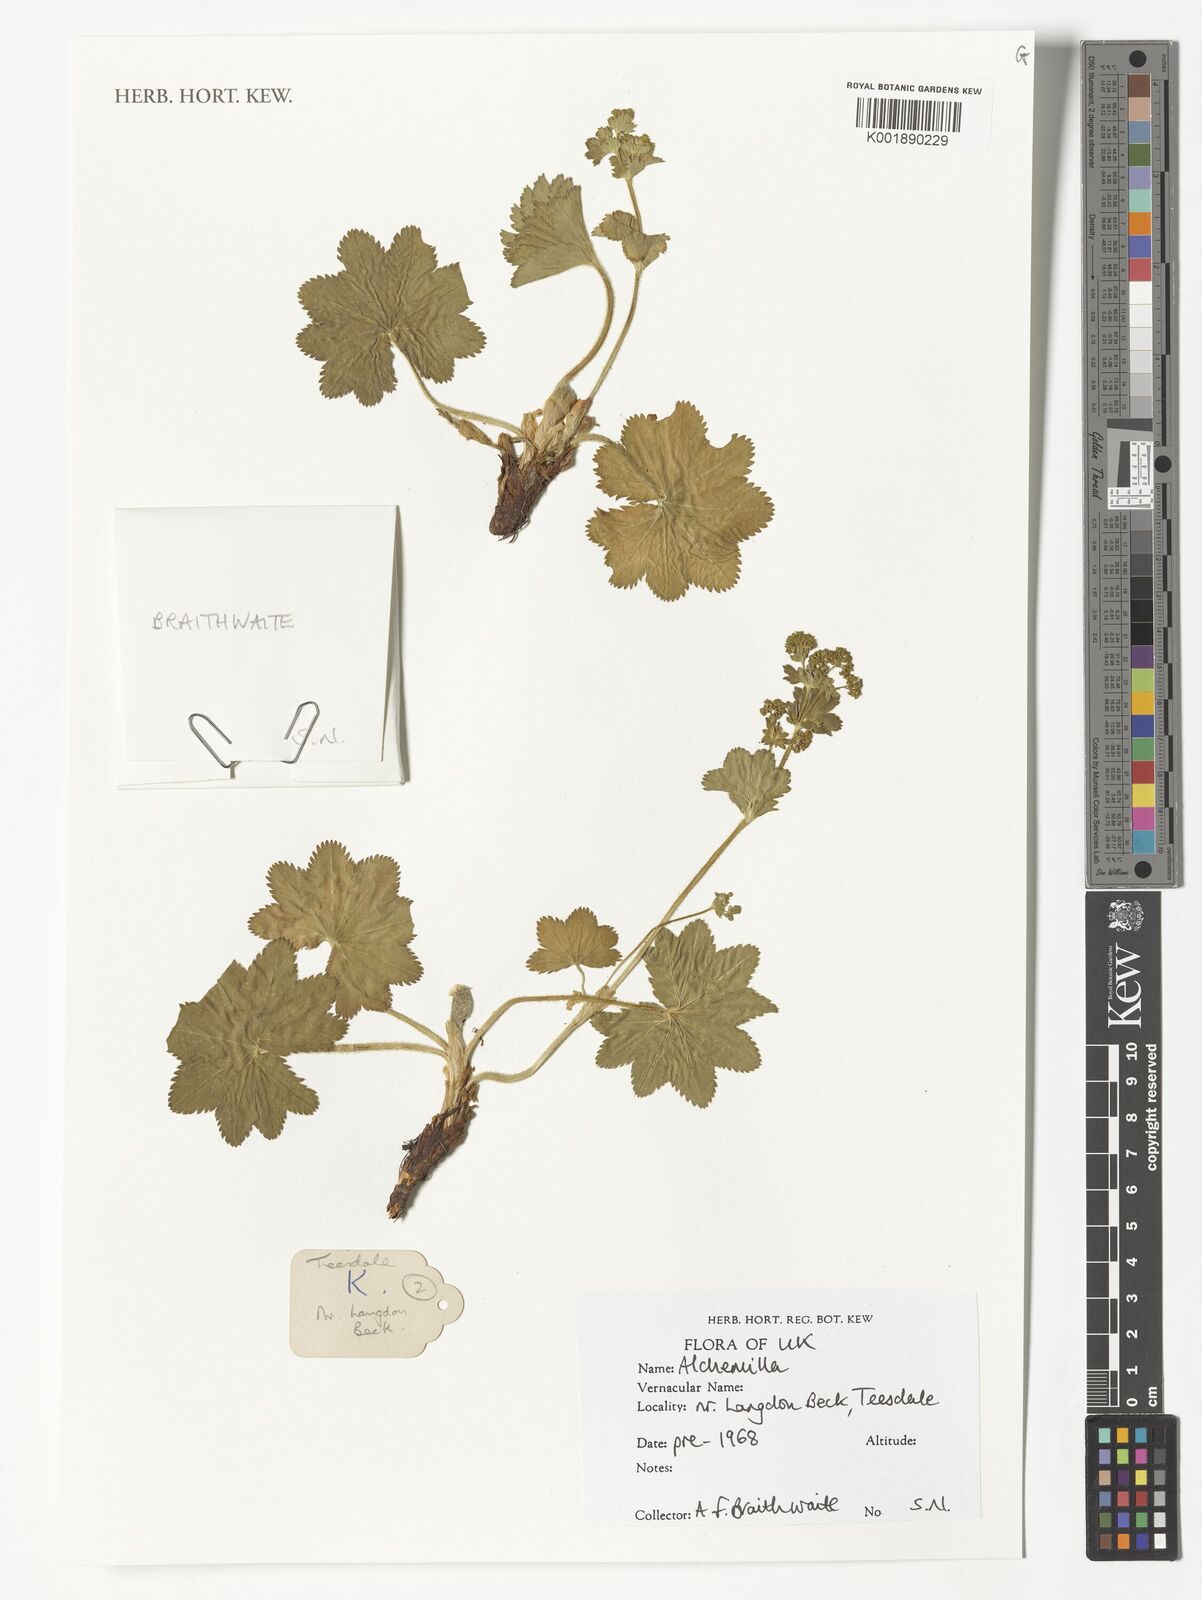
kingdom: Plantae
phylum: Tracheophyta
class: Magnoliopsida
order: Rosales
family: Rosaceae
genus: Alchemilla
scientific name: Alchemilla
